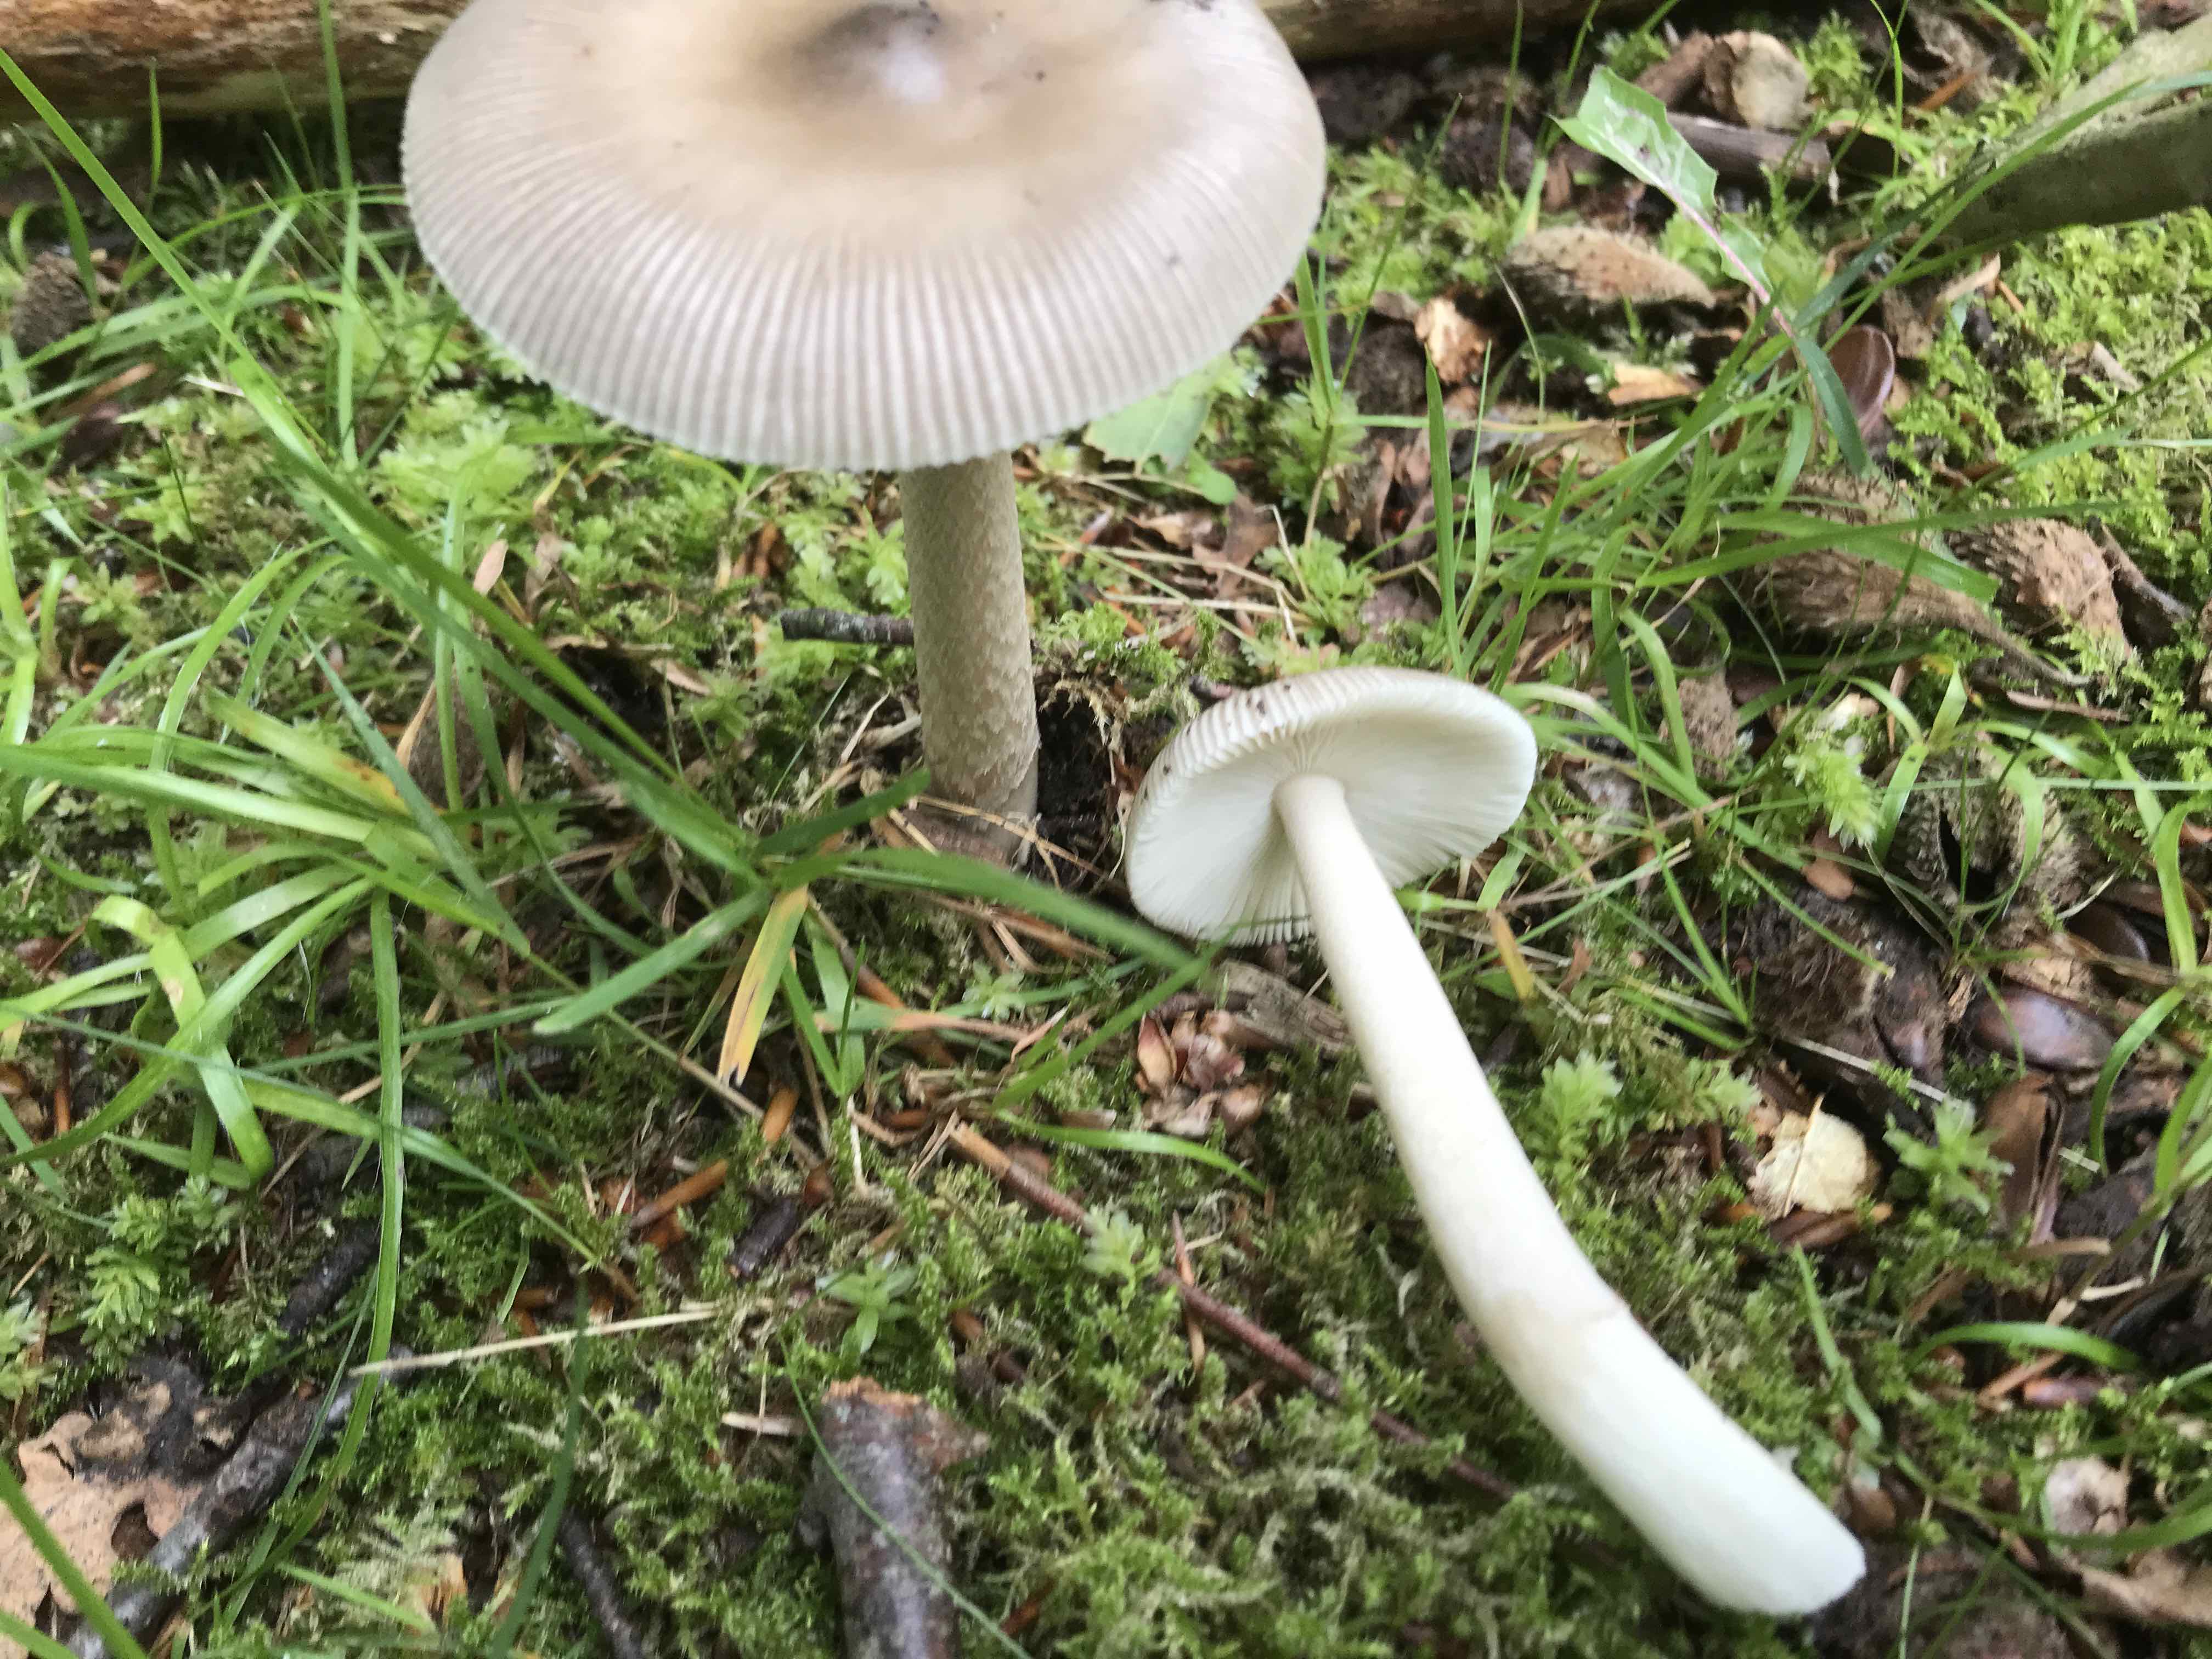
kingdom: Fungi
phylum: Basidiomycota
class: Agaricomycetes
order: Agaricales
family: Amanitaceae
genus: Amanita
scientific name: Amanita
